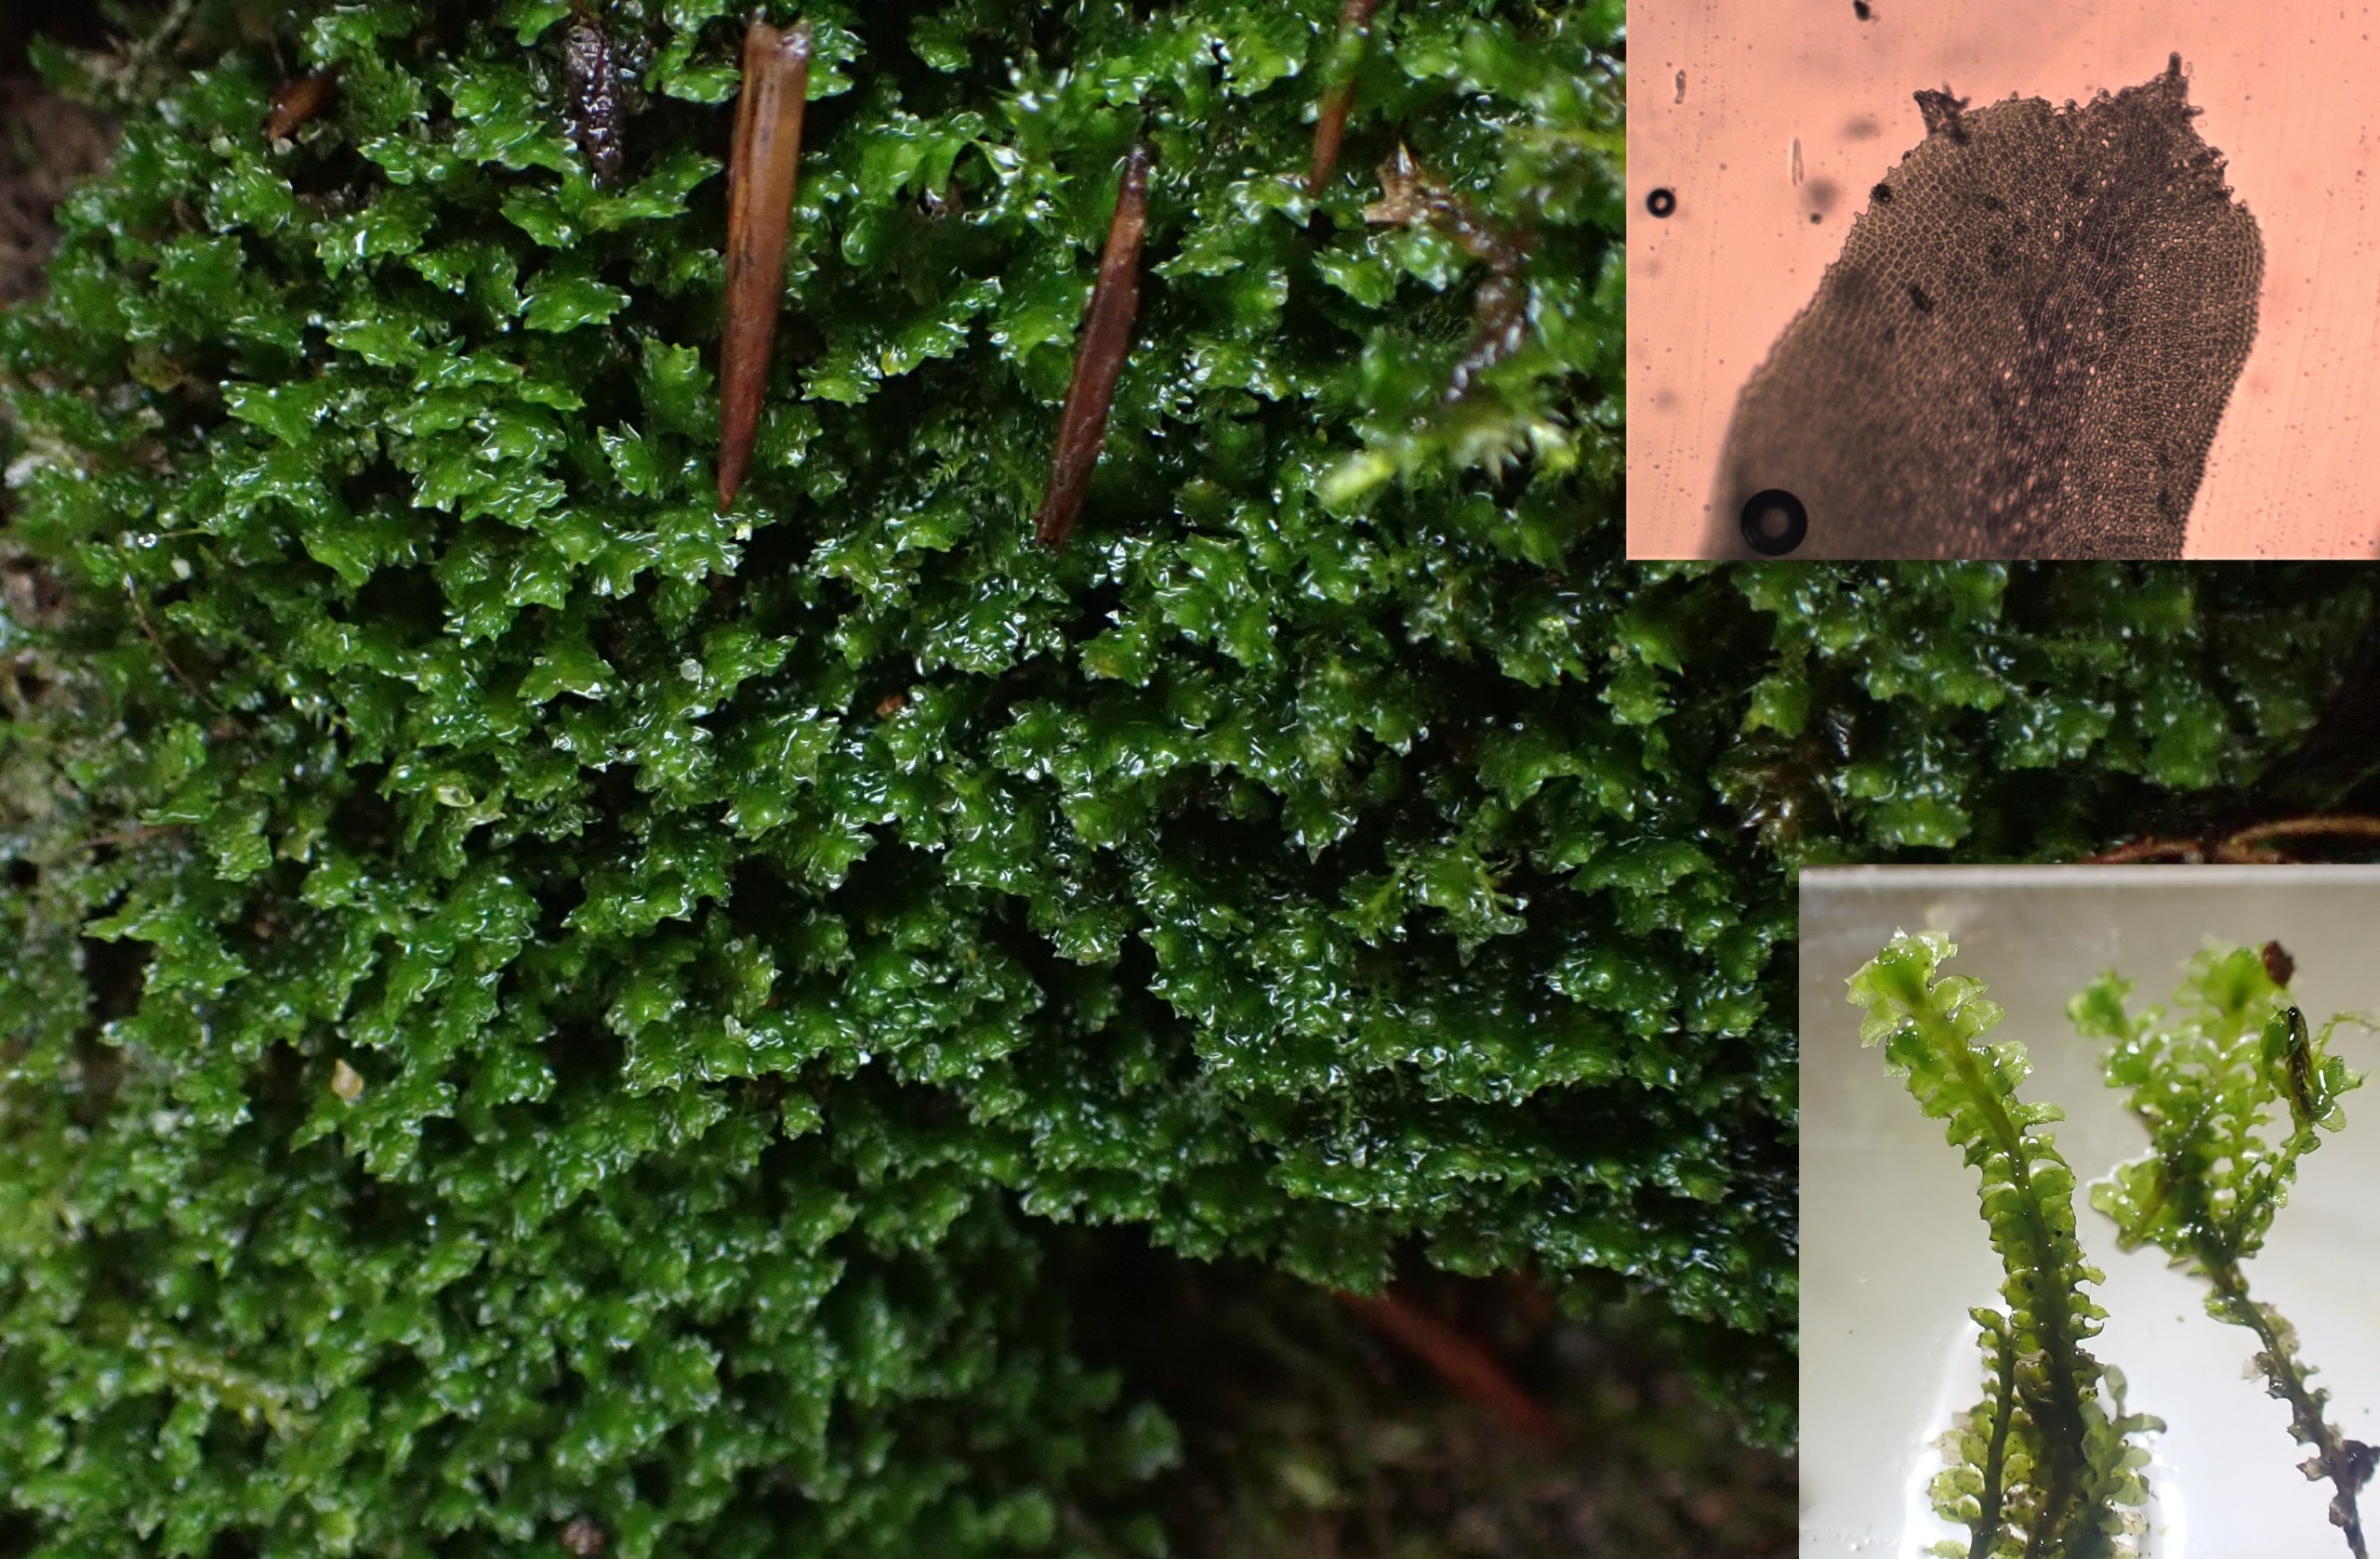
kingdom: Plantae
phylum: Marchantiophyta
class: Jungermanniopsida
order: Jungermanniales
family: Scapaniaceae
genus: Diplophyllum
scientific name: Diplophyllum albicans
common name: Stribet dobbeltblad
